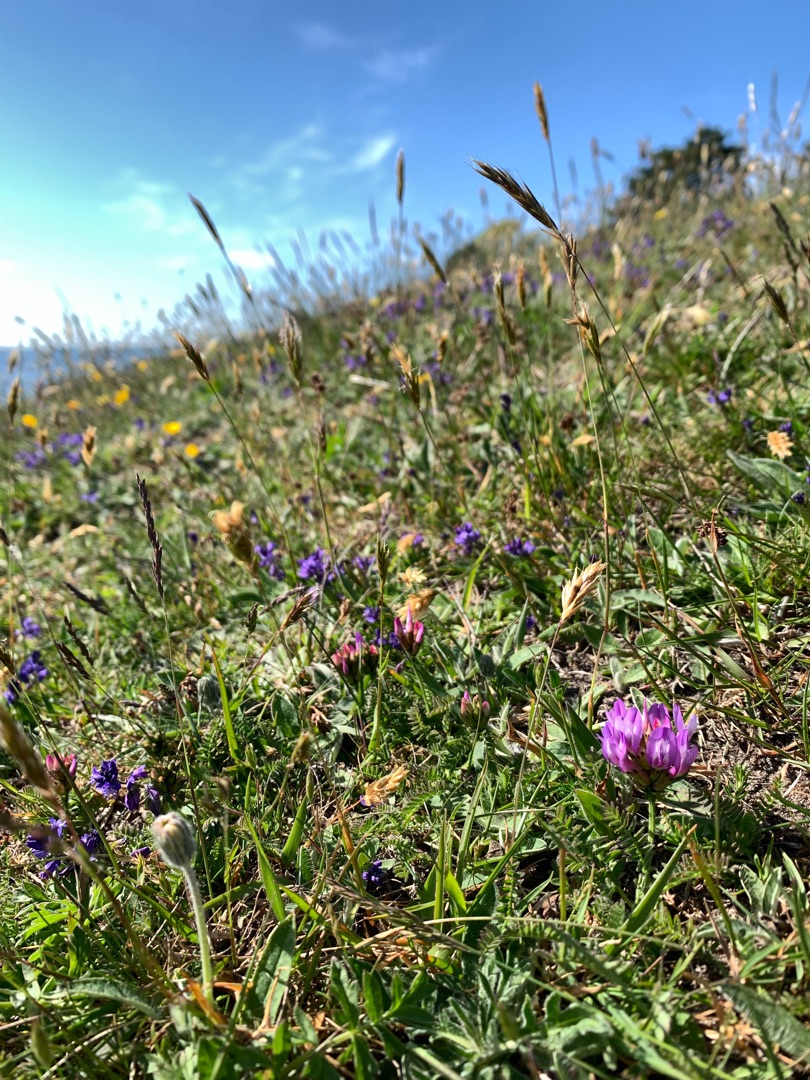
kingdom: Plantae
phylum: Tracheophyta
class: Magnoliopsida
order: Fabales
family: Fabaceae
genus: Astragalus
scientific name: Astragalus danicus
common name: Dansk astragel
